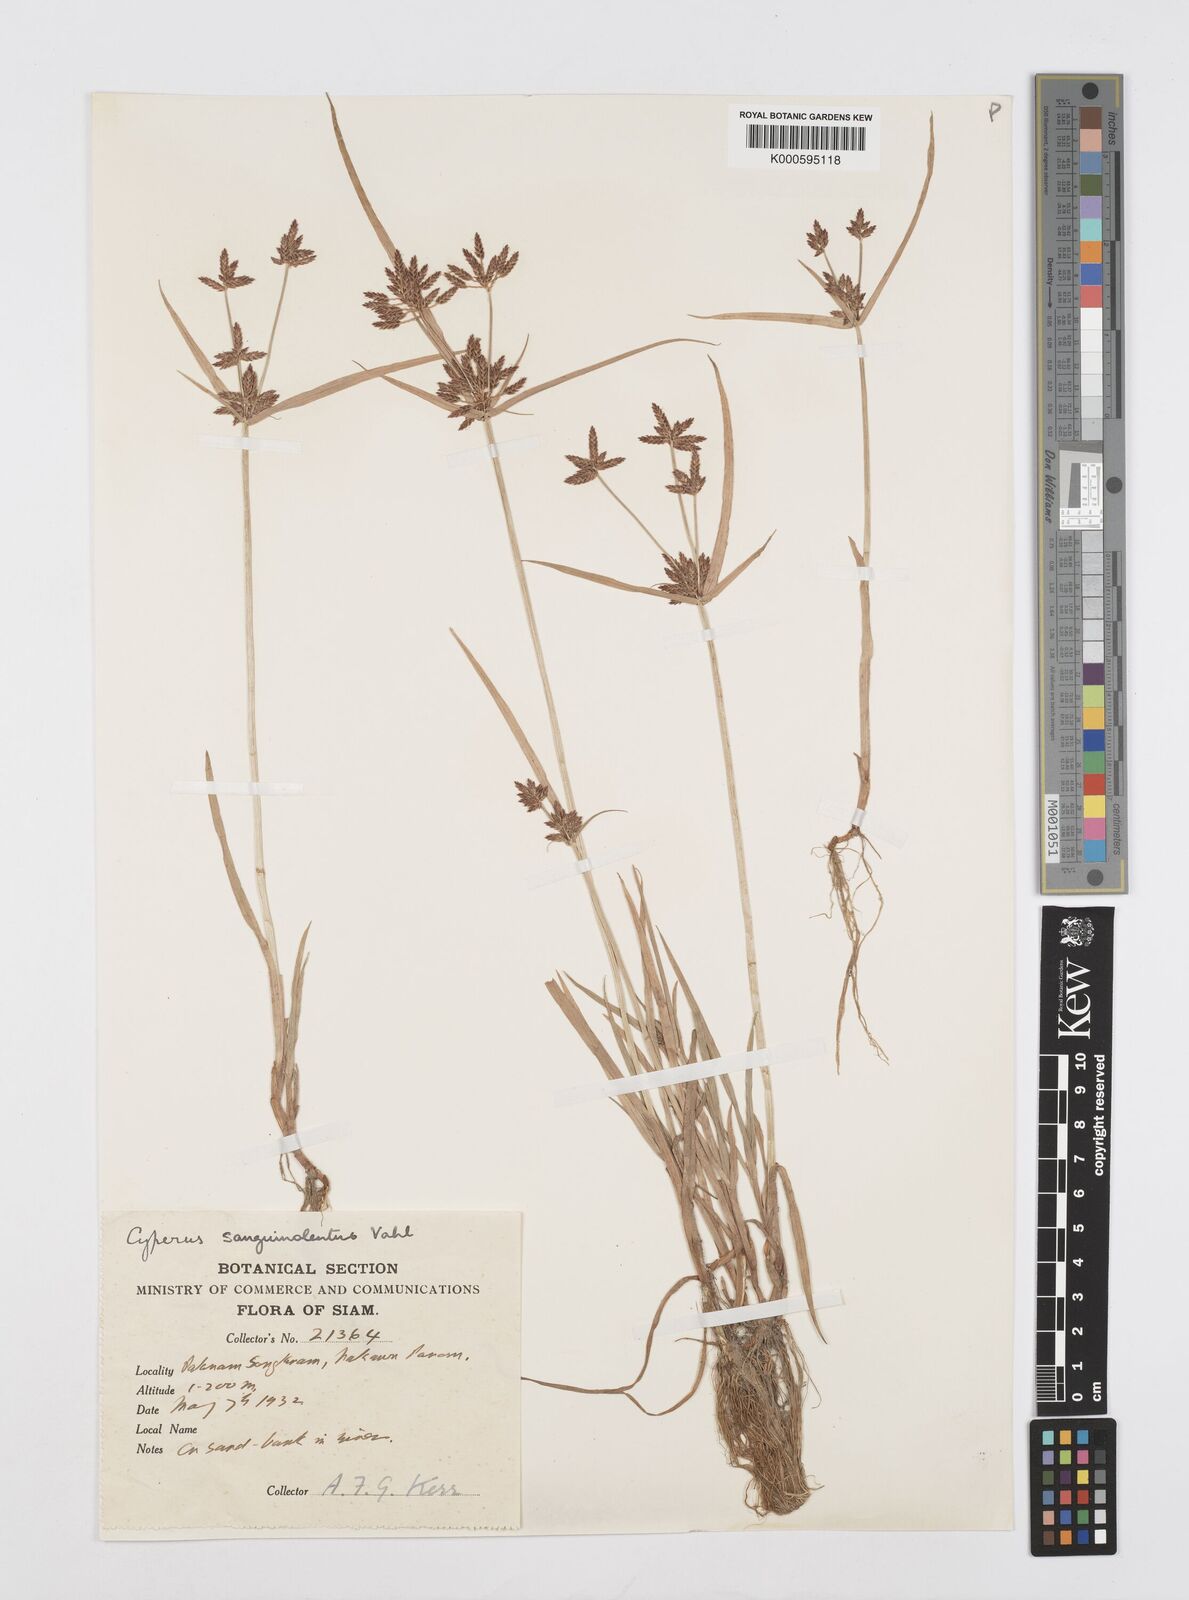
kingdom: Plantae
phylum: Tracheophyta
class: Liliopsida
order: Poales
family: Cyperaceae
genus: Cyperus
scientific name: Cyperus sanguinolentus
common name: Purpleglume flatsedge
